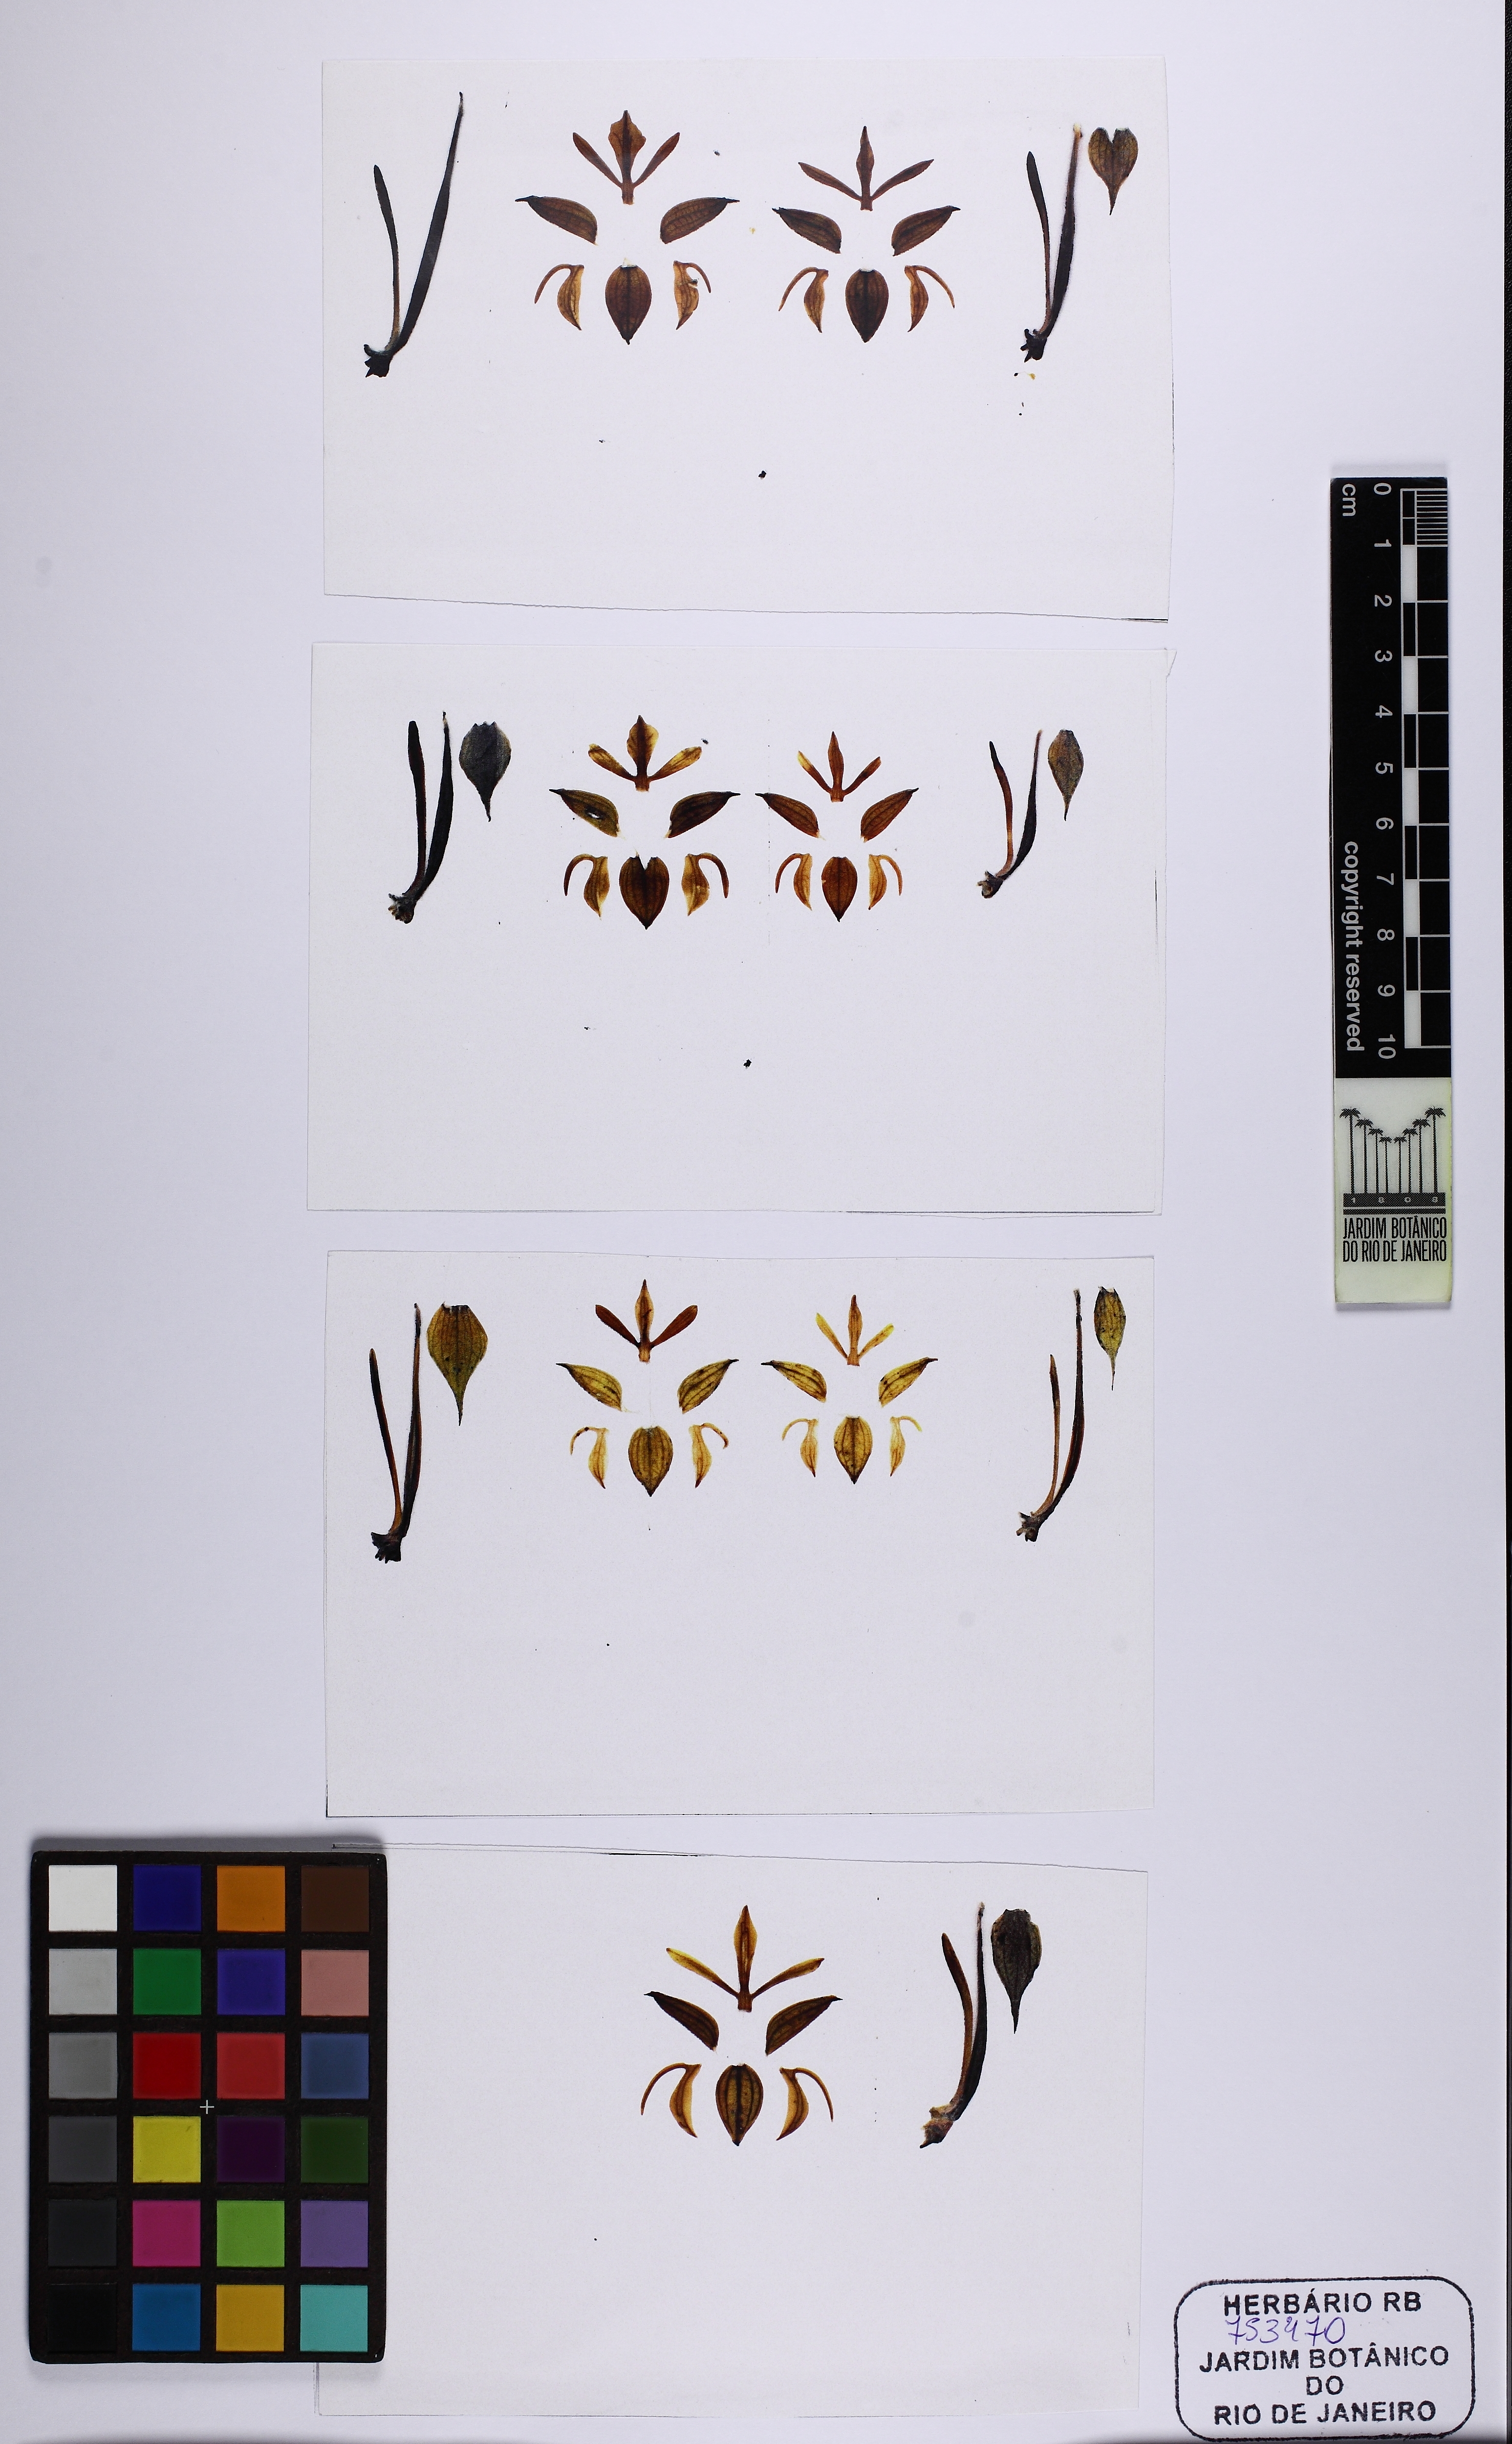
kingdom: Plantae
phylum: Tracheophyta
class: Liliopsida
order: Asparagales
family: Orchidaceae
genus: Habenaria
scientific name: Habenaria pratensis
